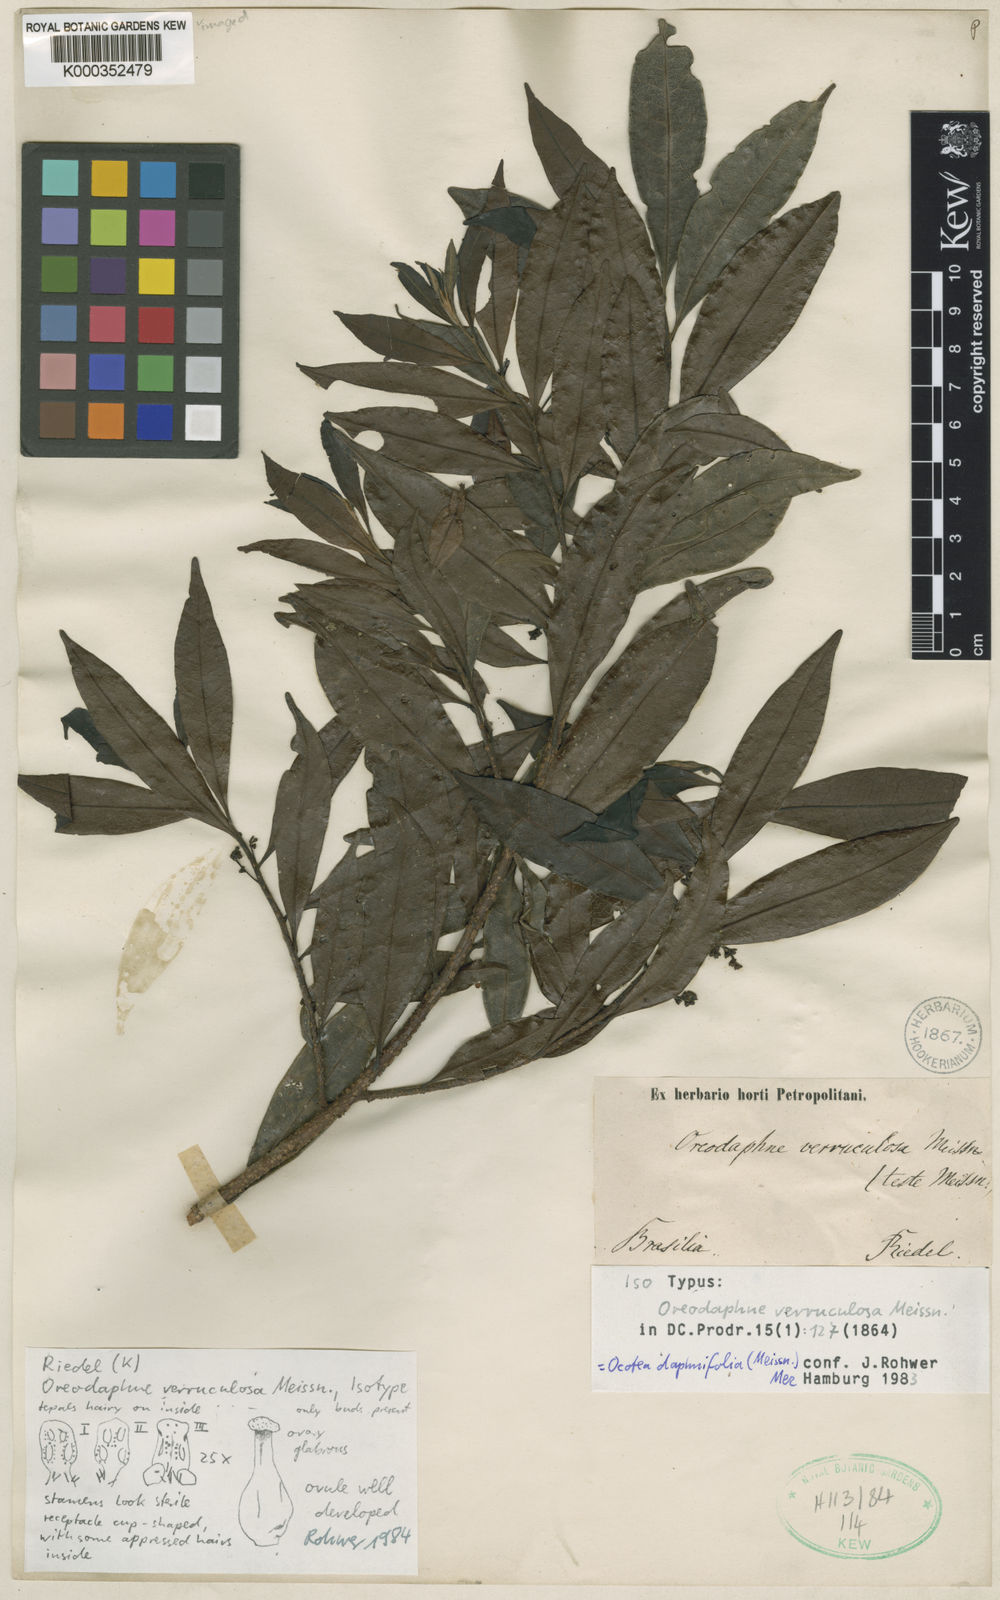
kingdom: Plantae
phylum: Tracheophyta
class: Magnoliopsida
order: Laurales
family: Lauraceae
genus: Ocotea
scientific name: Ocotea daphnifolia
